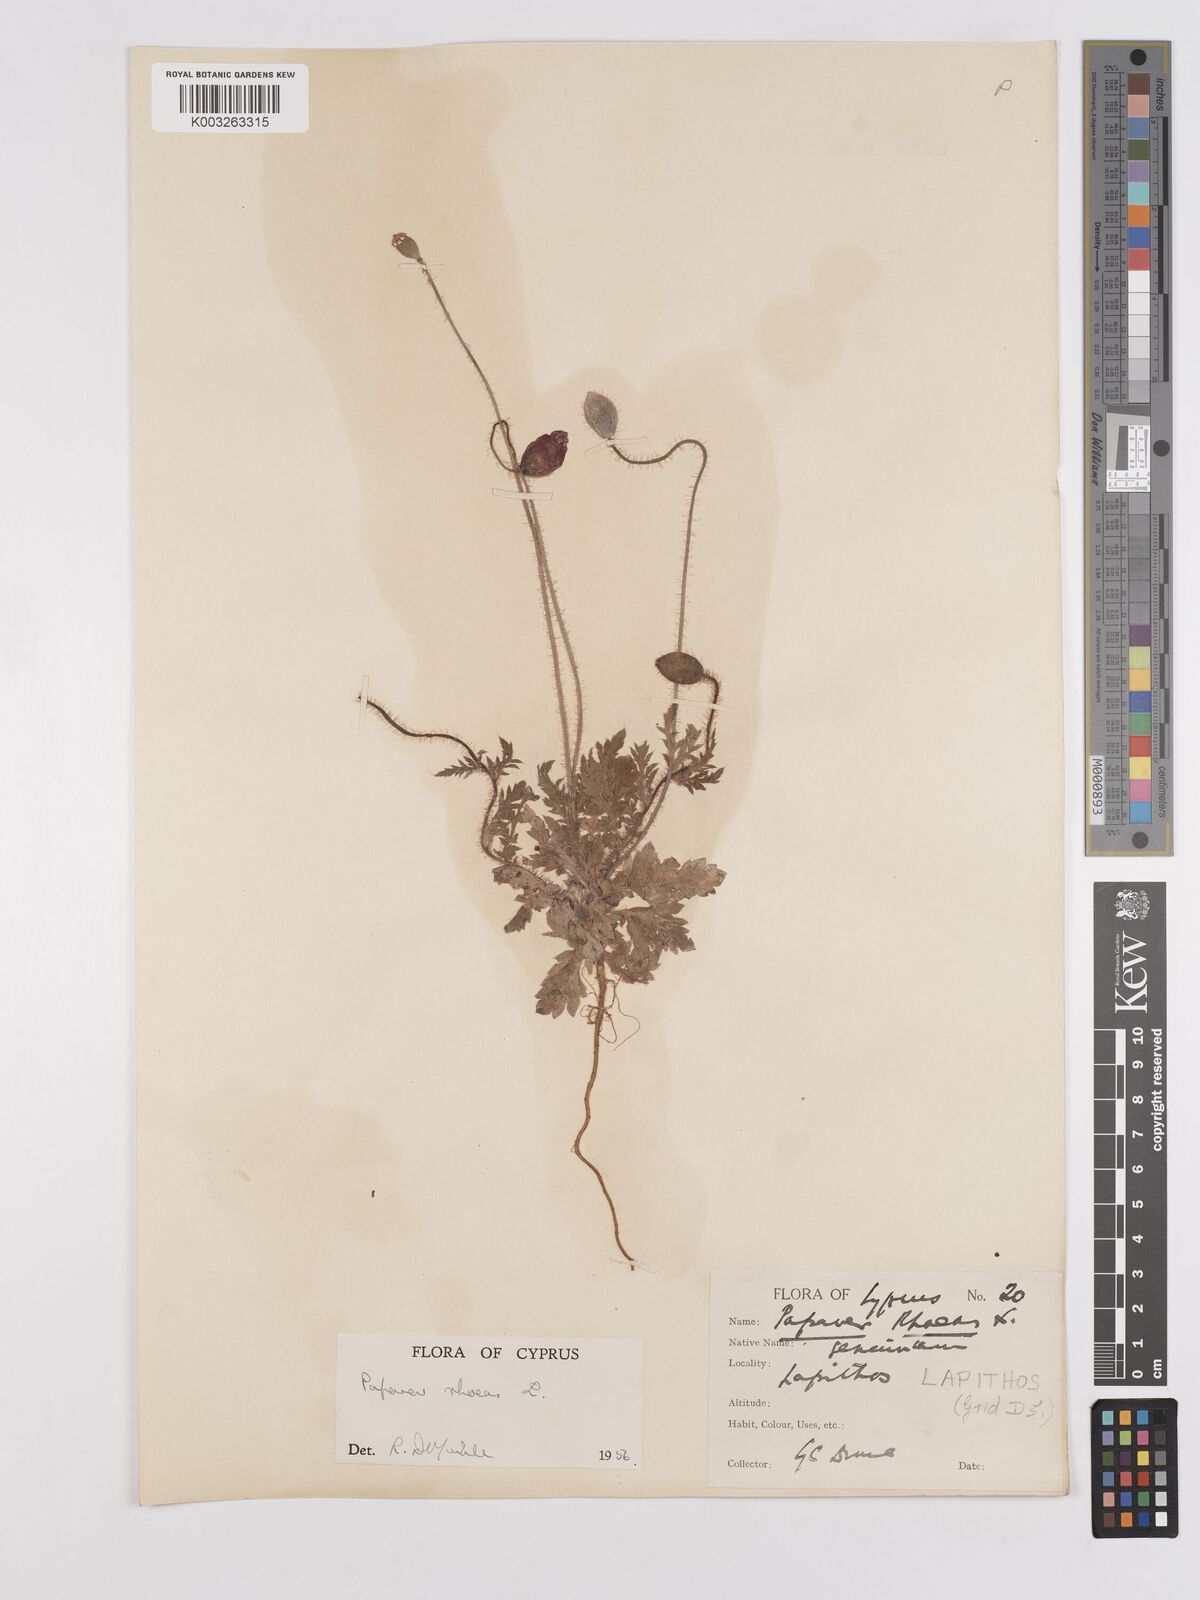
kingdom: Plantae
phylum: Tracheophyta
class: Magnoliopsida
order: Ranunculales
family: Papaveraceae
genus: Papaver
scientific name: Papaver rhoeas
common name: Corn poppy
